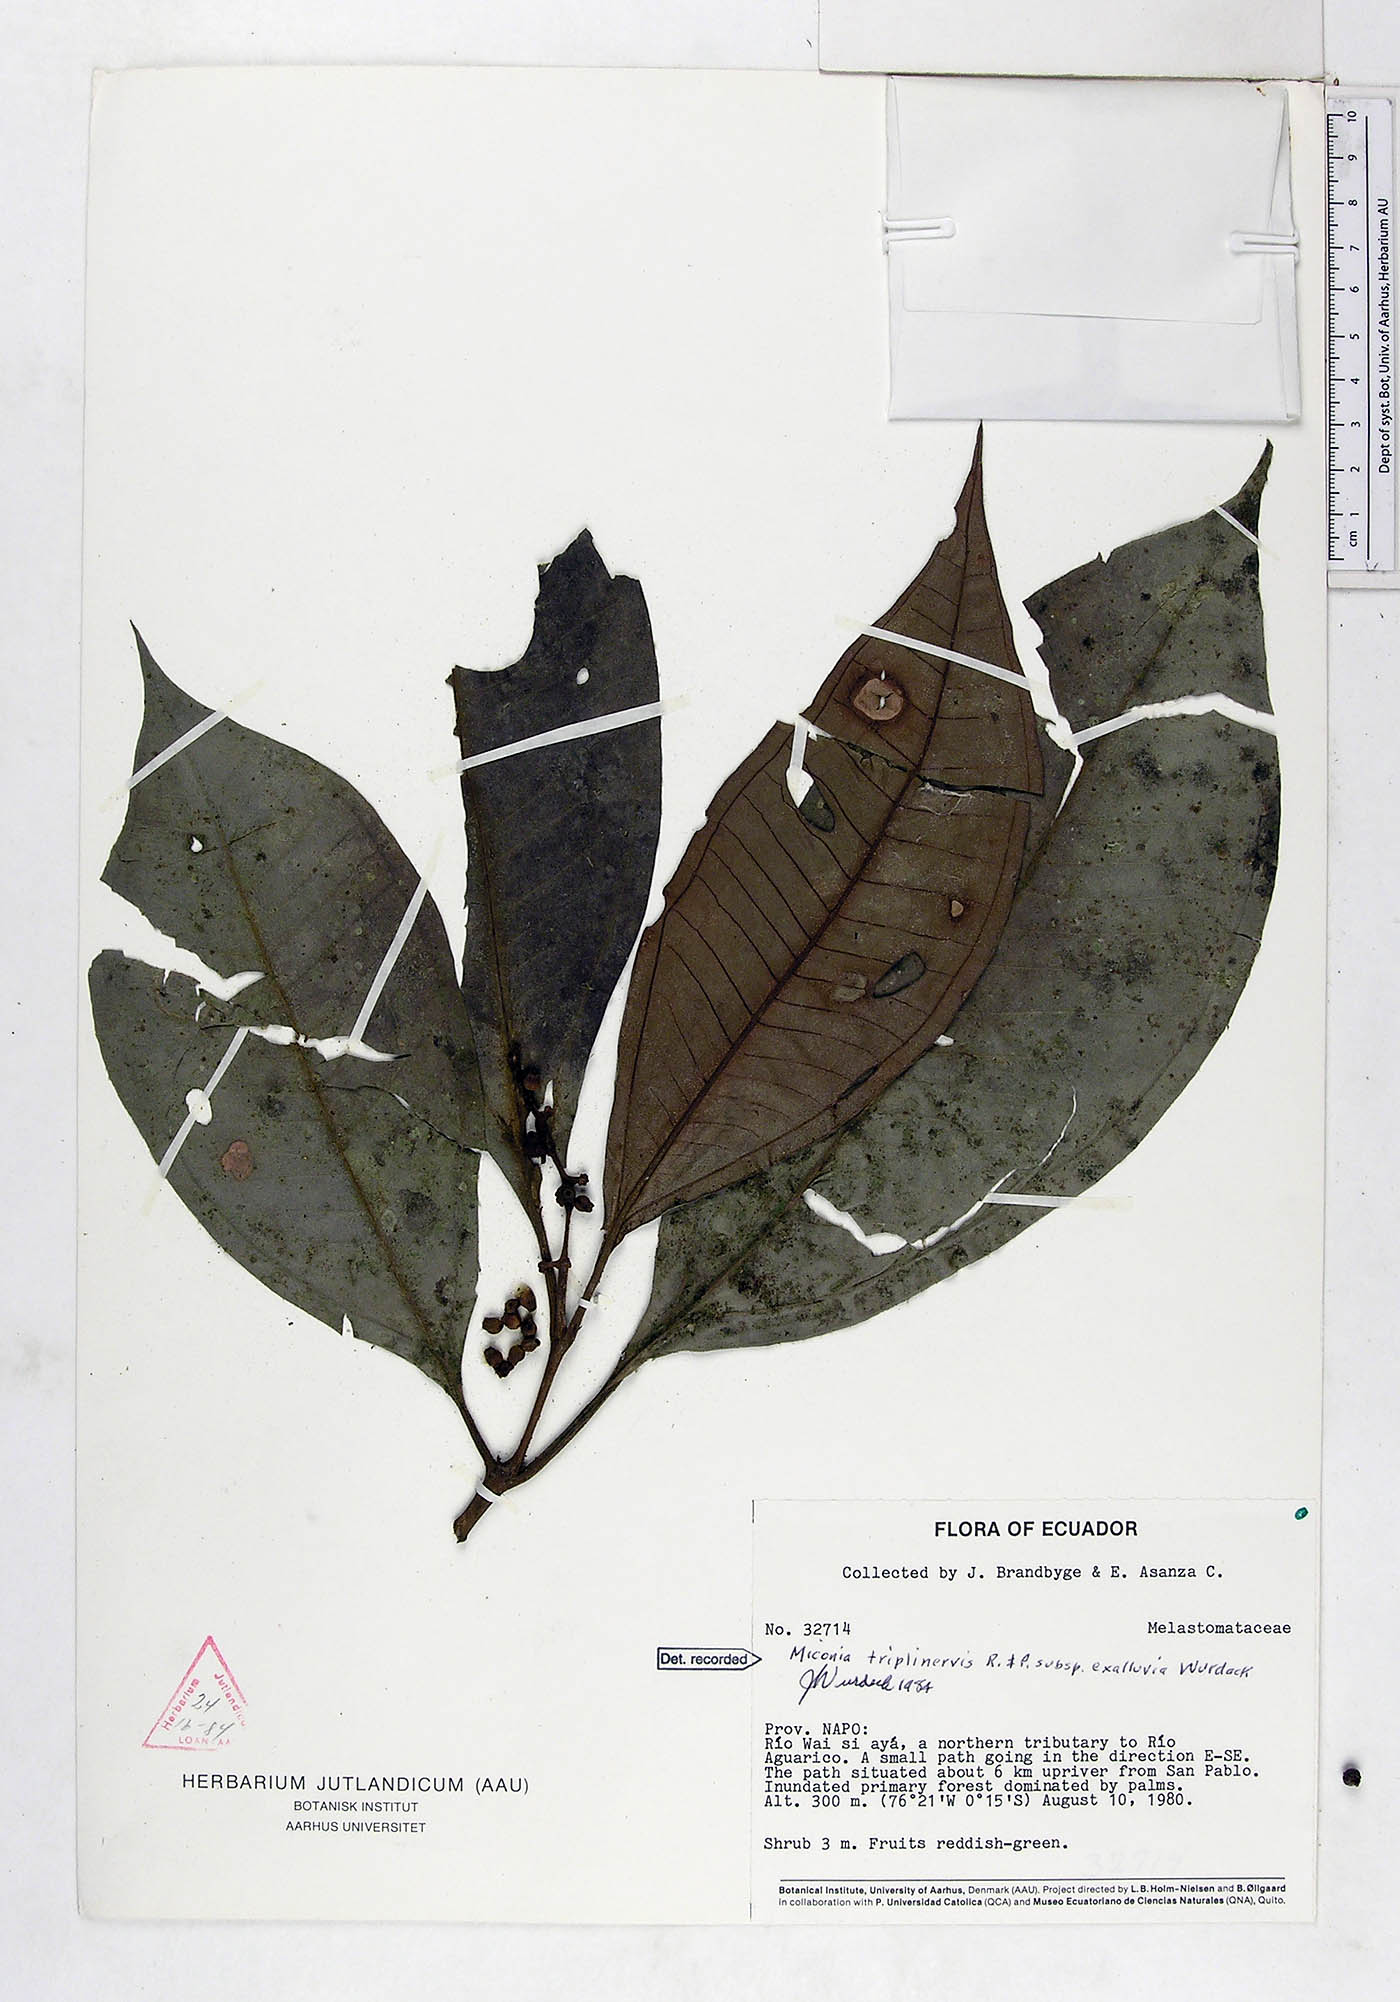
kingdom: Plantae
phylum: Tracheophyta
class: Magnoliopsida
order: Myrtales
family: Melastomataceae
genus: Miconia
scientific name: Miconia triplinervis
